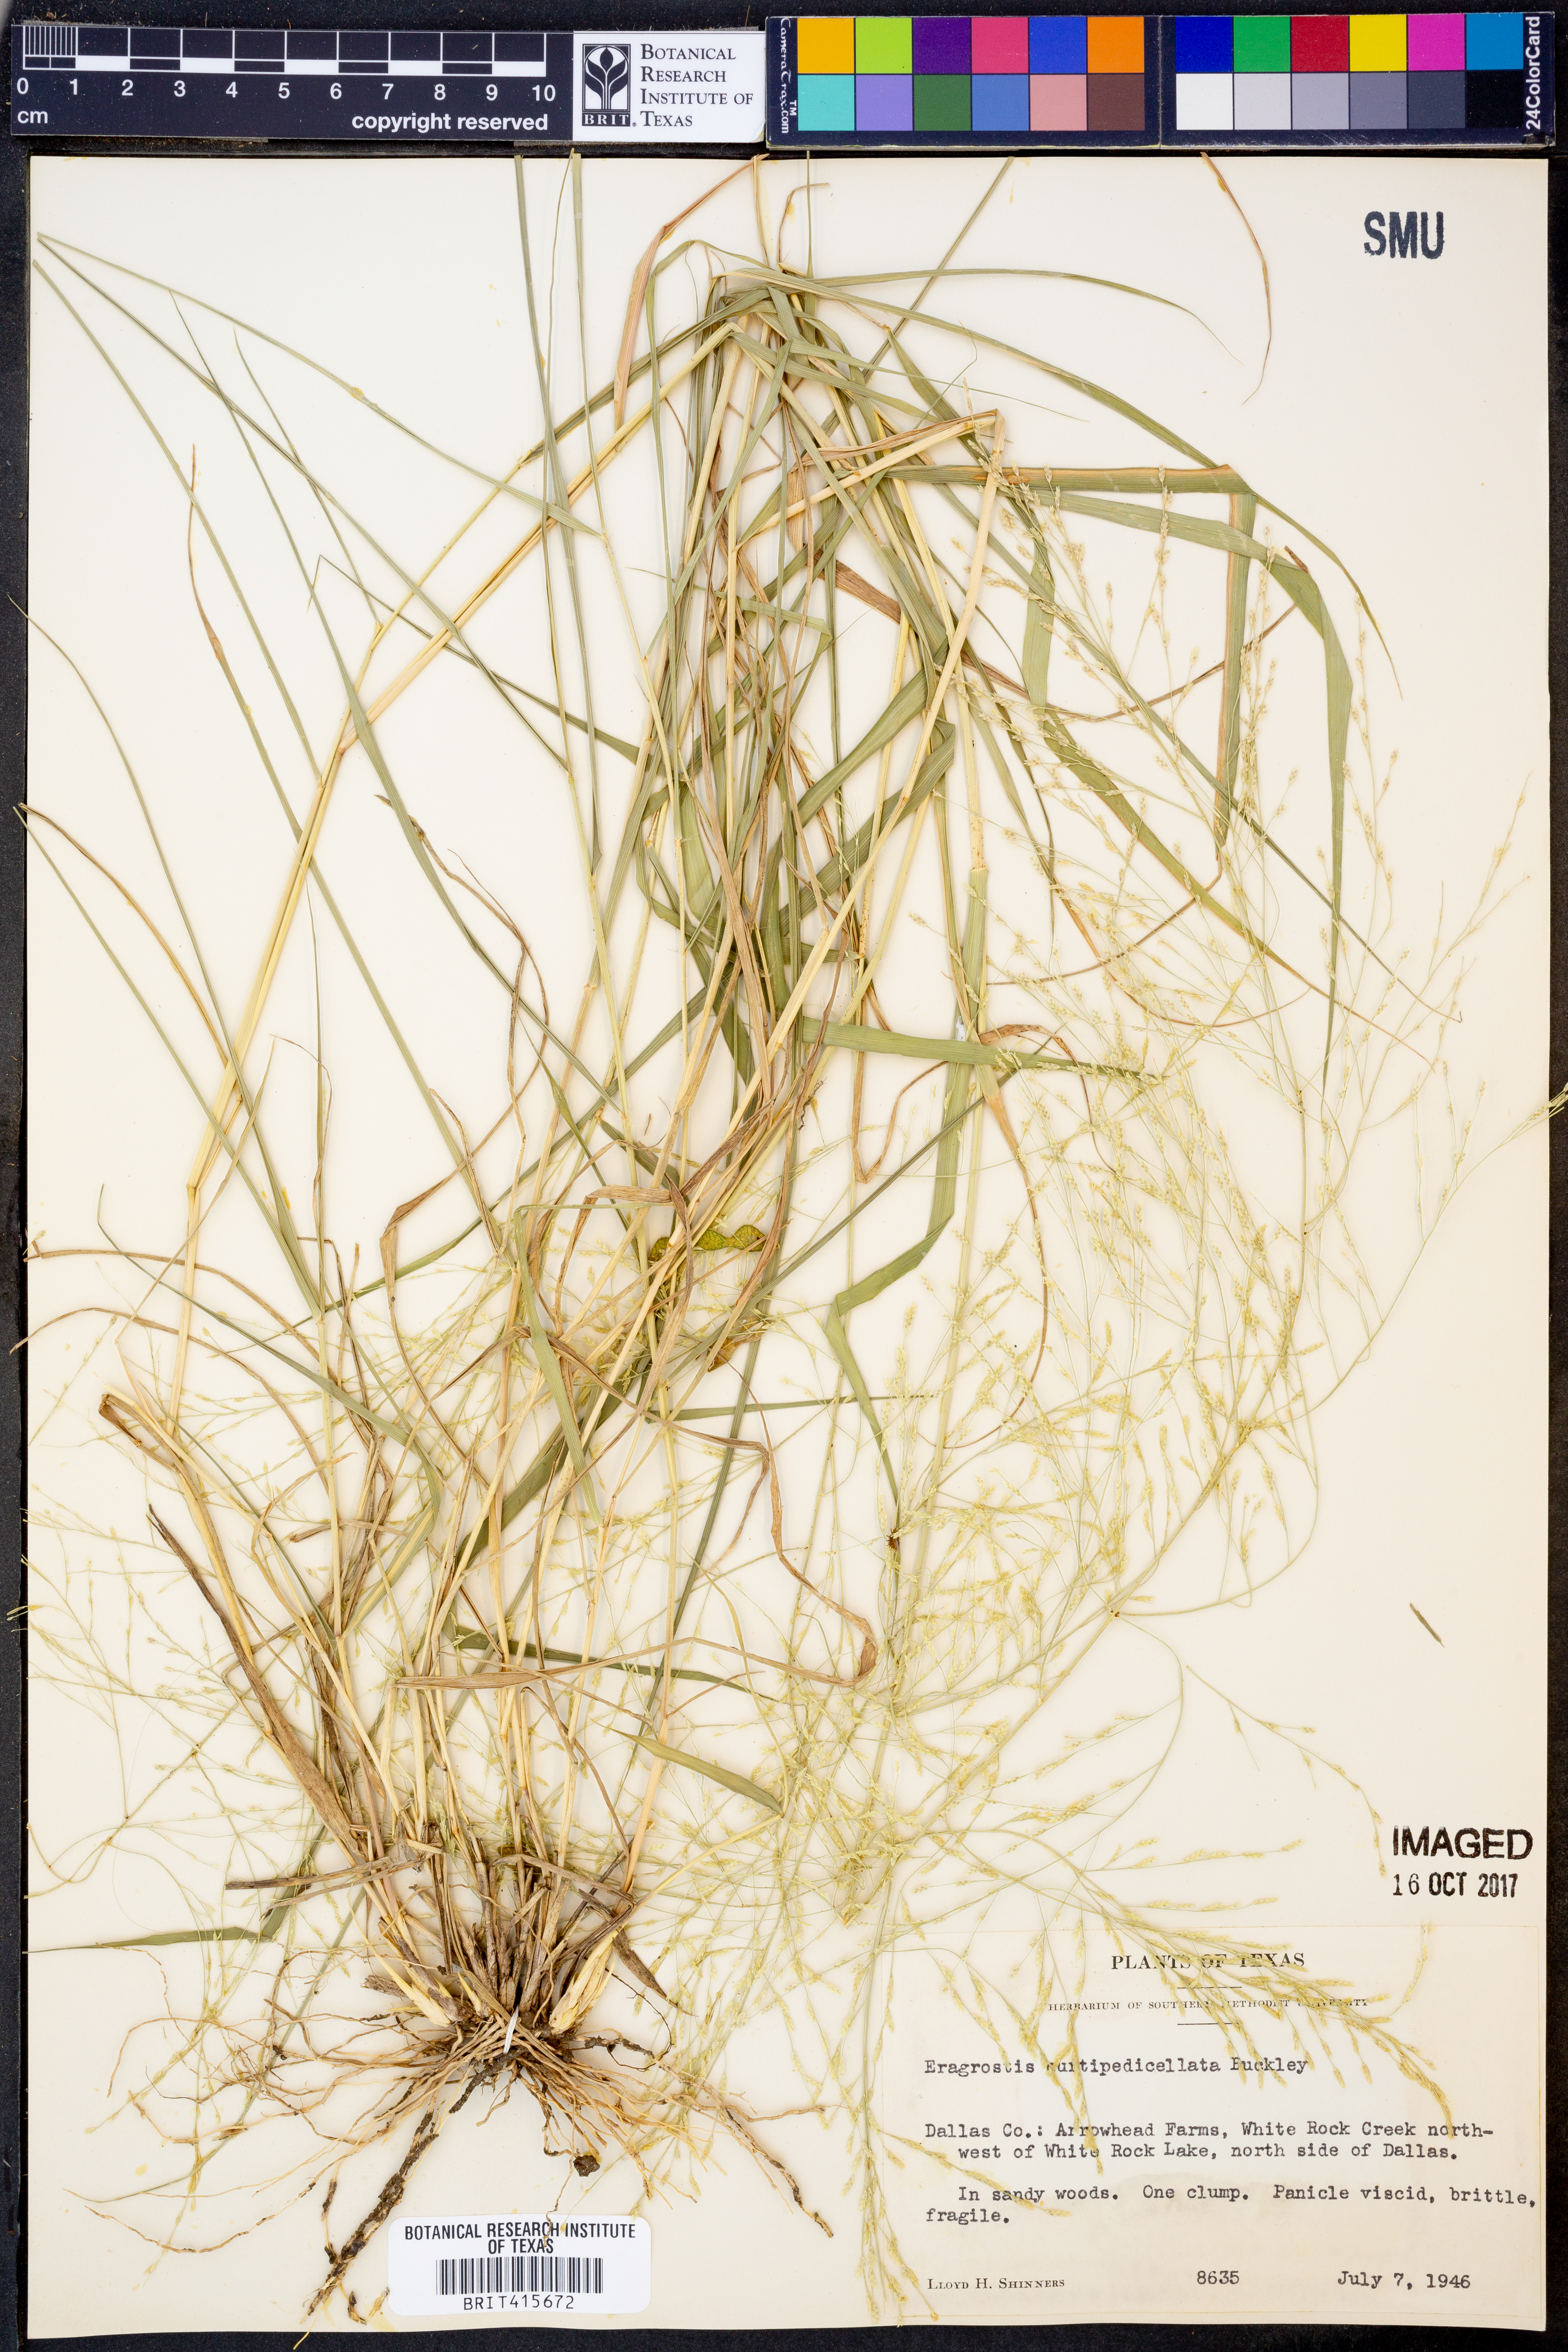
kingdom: Plantae
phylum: Tracheophyta
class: Liliopsida
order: Poales
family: Poaceae
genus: Eragrostis
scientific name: Eragrostis curtipedicellata
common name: Gummy love grass
